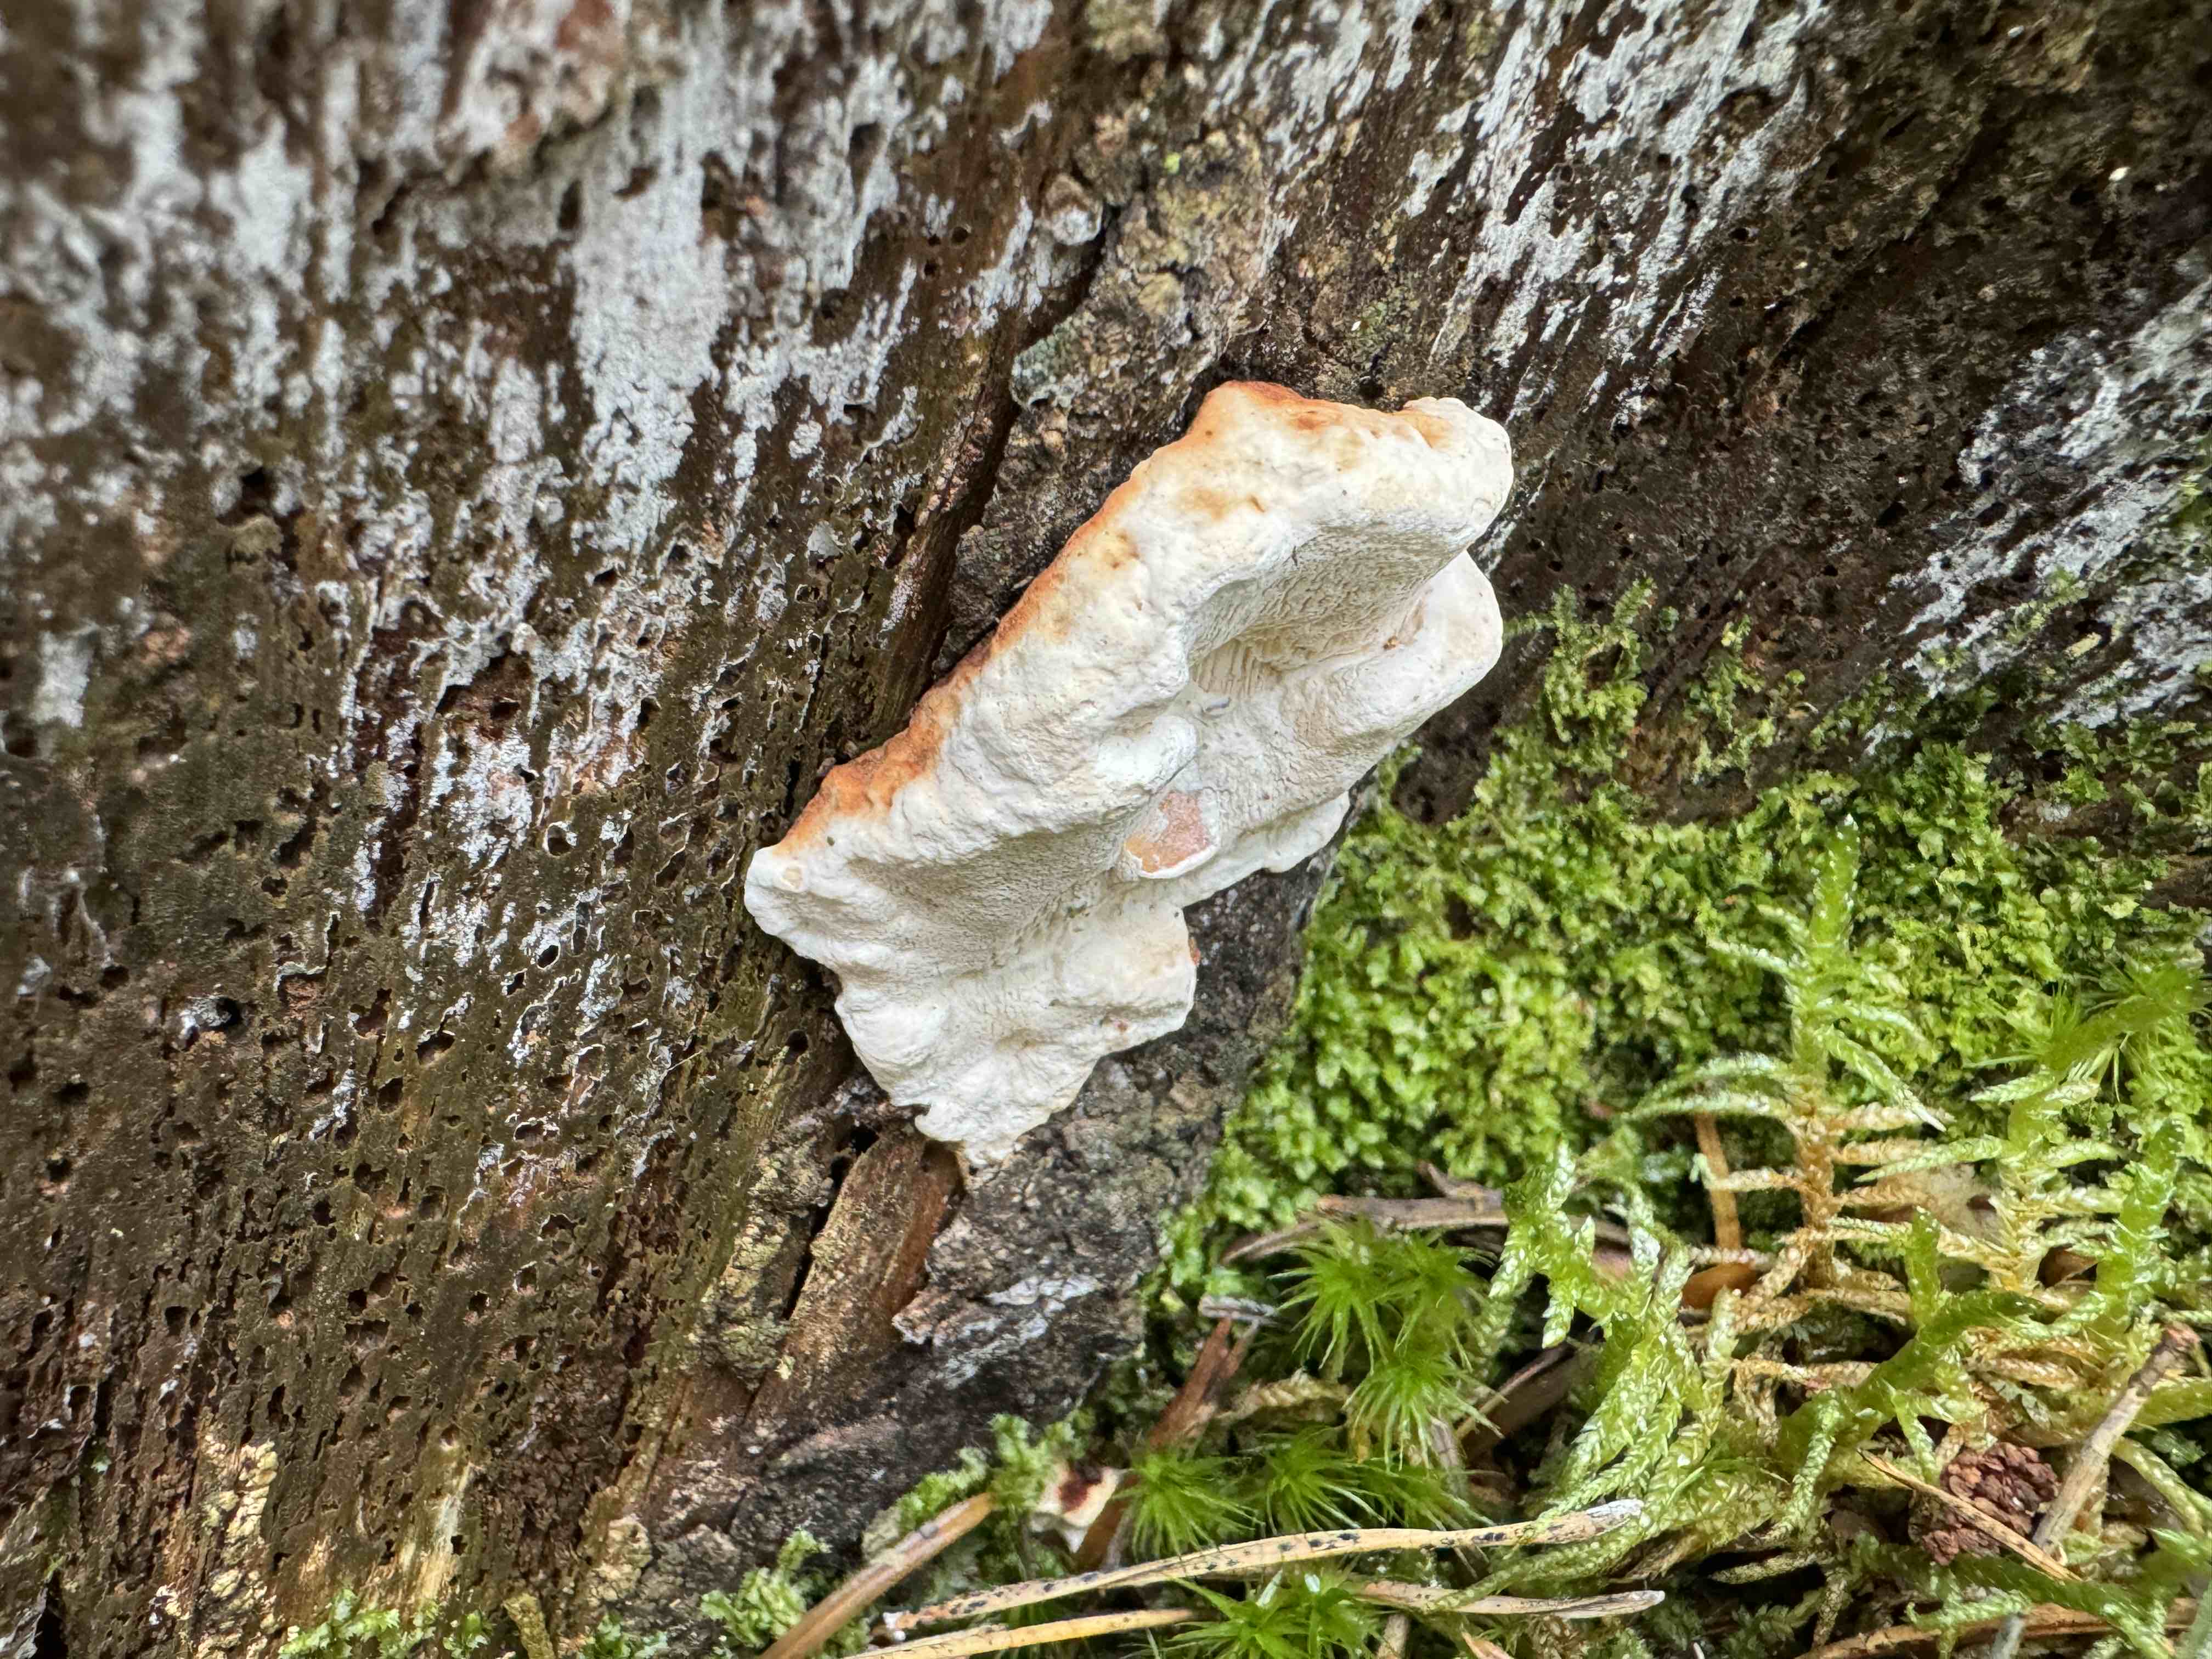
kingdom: Fungi
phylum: Basidiomycota
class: Agaricomycetes
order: Russulales
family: Bondarzewiaceae
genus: Heterobasidion
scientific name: Heterobasidion annosum
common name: almindelig rodfordærver
